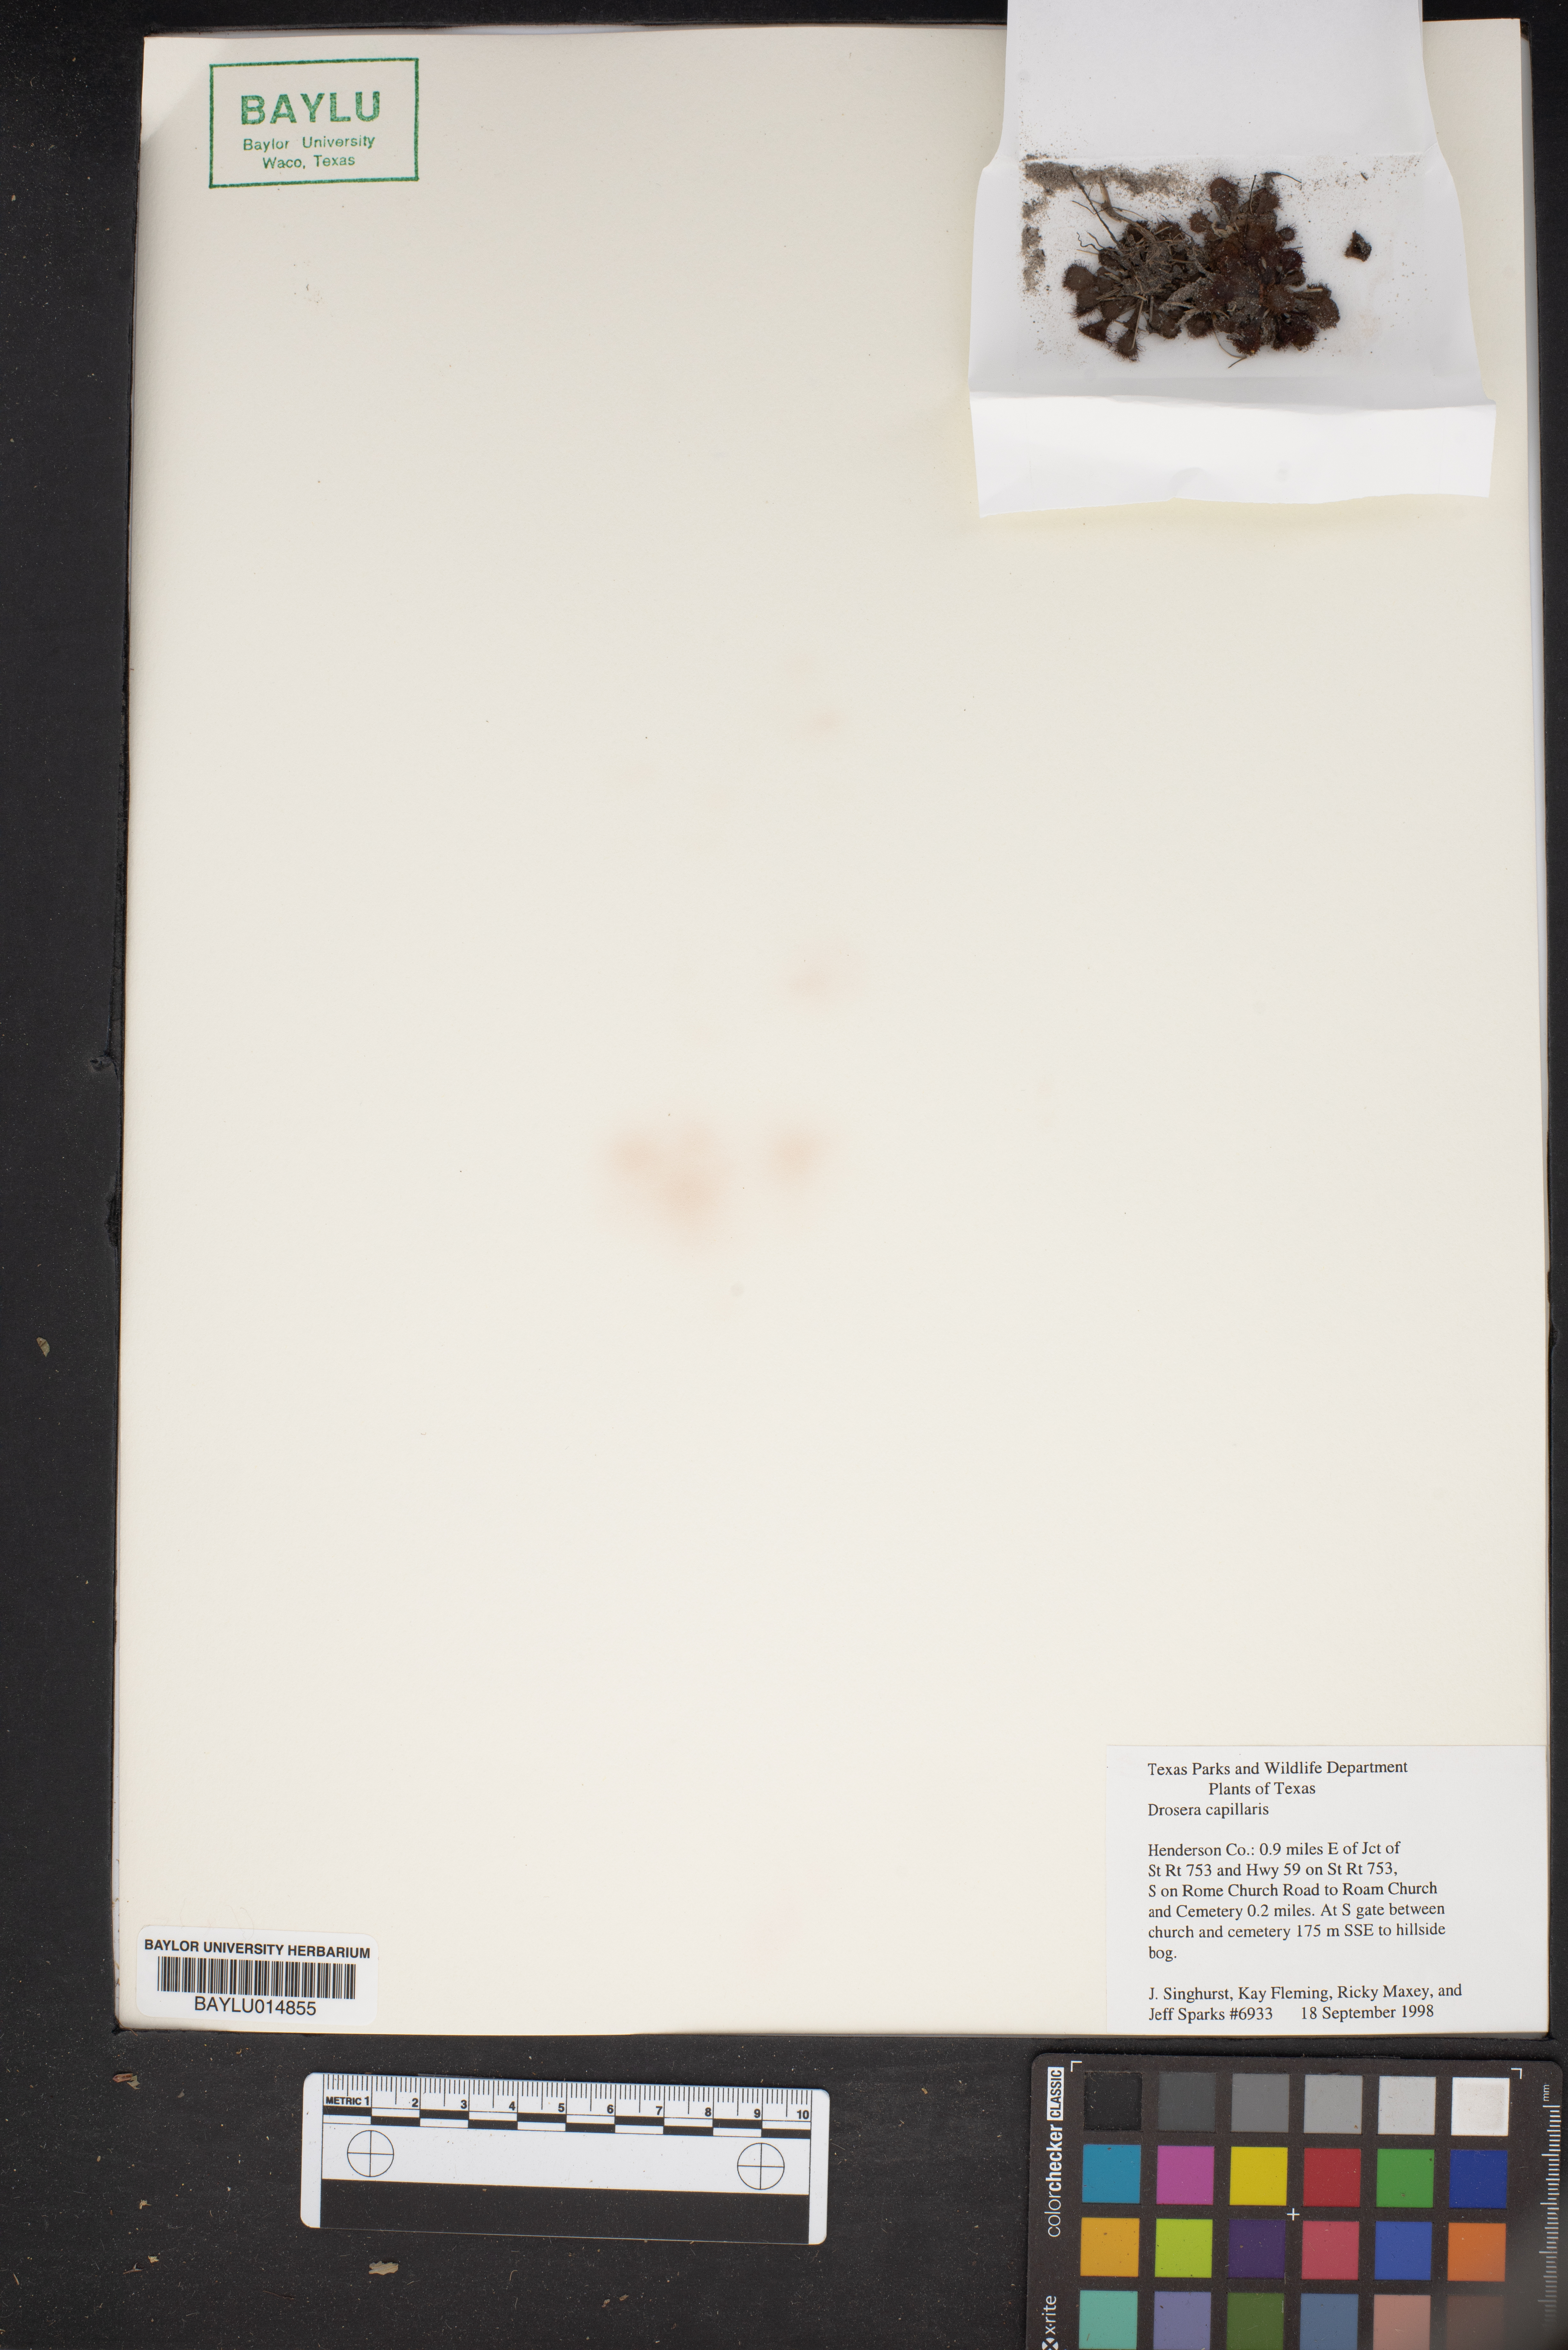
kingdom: Plantae
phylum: Tracheophyta
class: Magnoliopsida
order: Caryophyllales
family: Droseraceae
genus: Drosera
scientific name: Drosera capillaris
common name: Pink sundew
